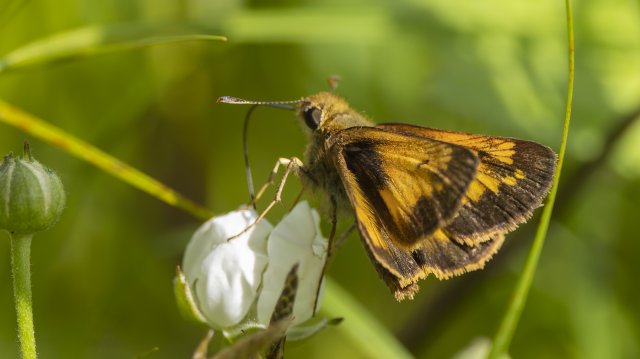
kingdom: Animalia
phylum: Arthropoda
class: Insecta
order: Lepidoptera
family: Hesperiidae
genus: Atrytone
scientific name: Atrytone delaware
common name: Delaware Skipper
